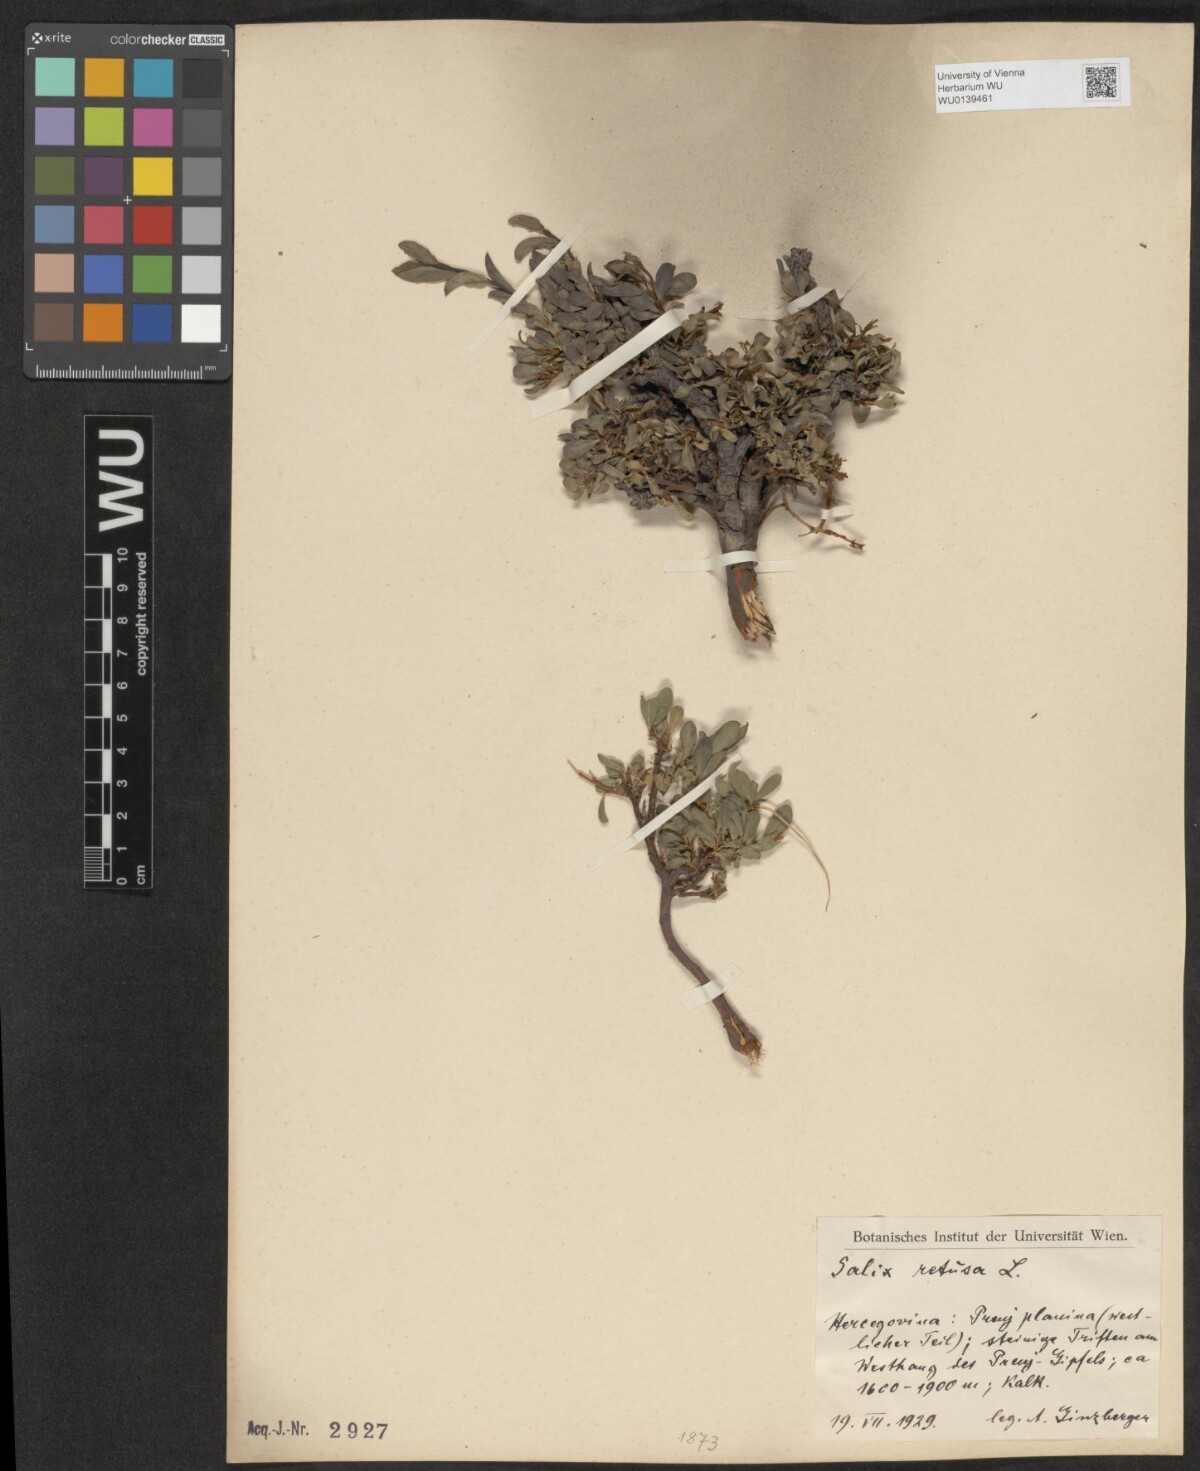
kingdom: Plantae
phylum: Tracheophyta
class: Magnoliopsida
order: Malpighiales
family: Salicaceae
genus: Salix
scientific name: Salix retusa
